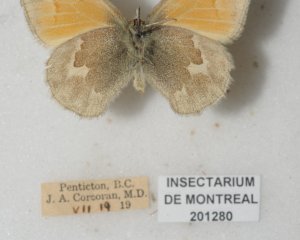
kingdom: Animalia
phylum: Arthropoda
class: Insecta
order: Lepidoptera
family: Nymphalidae
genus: Coenonympha
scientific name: Coenonympha tullia
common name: Large Heath
